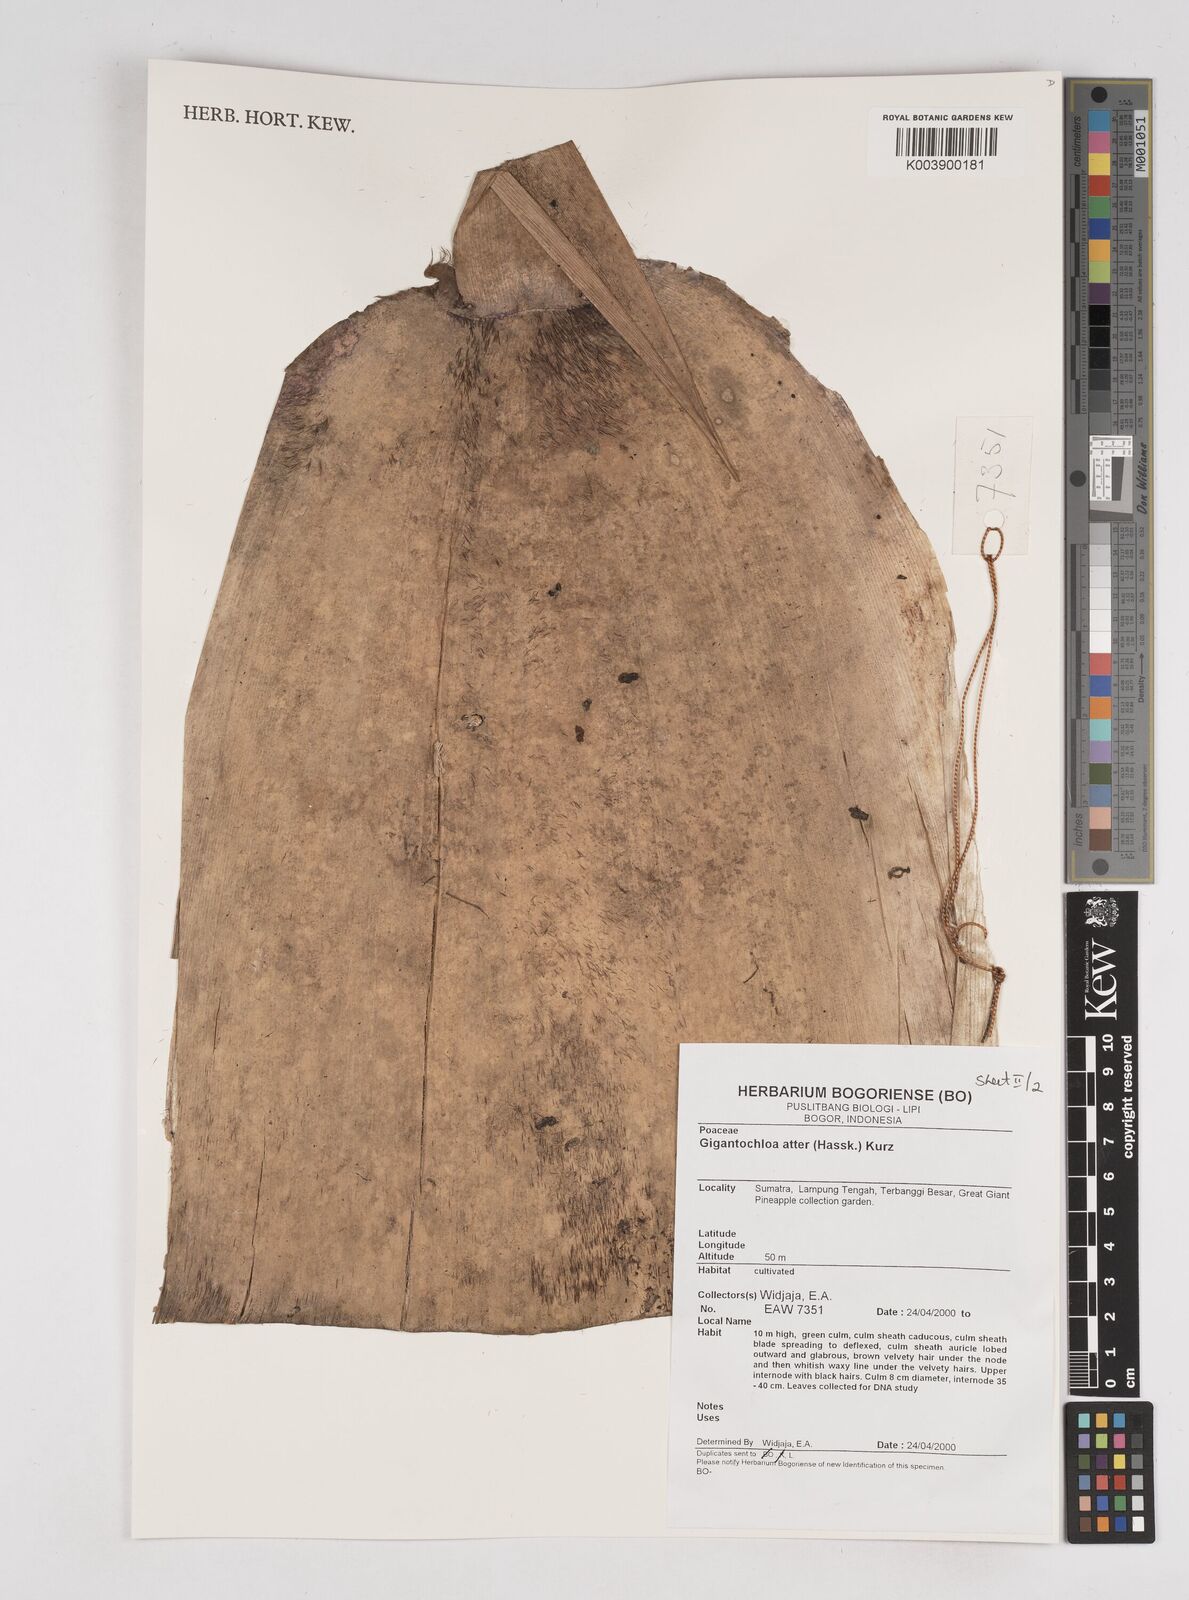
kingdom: Plantae
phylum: Tracheophyta
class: Liliopsida
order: Poales
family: Poaceae
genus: Gigantochloa
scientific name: Gigantochloa atter
